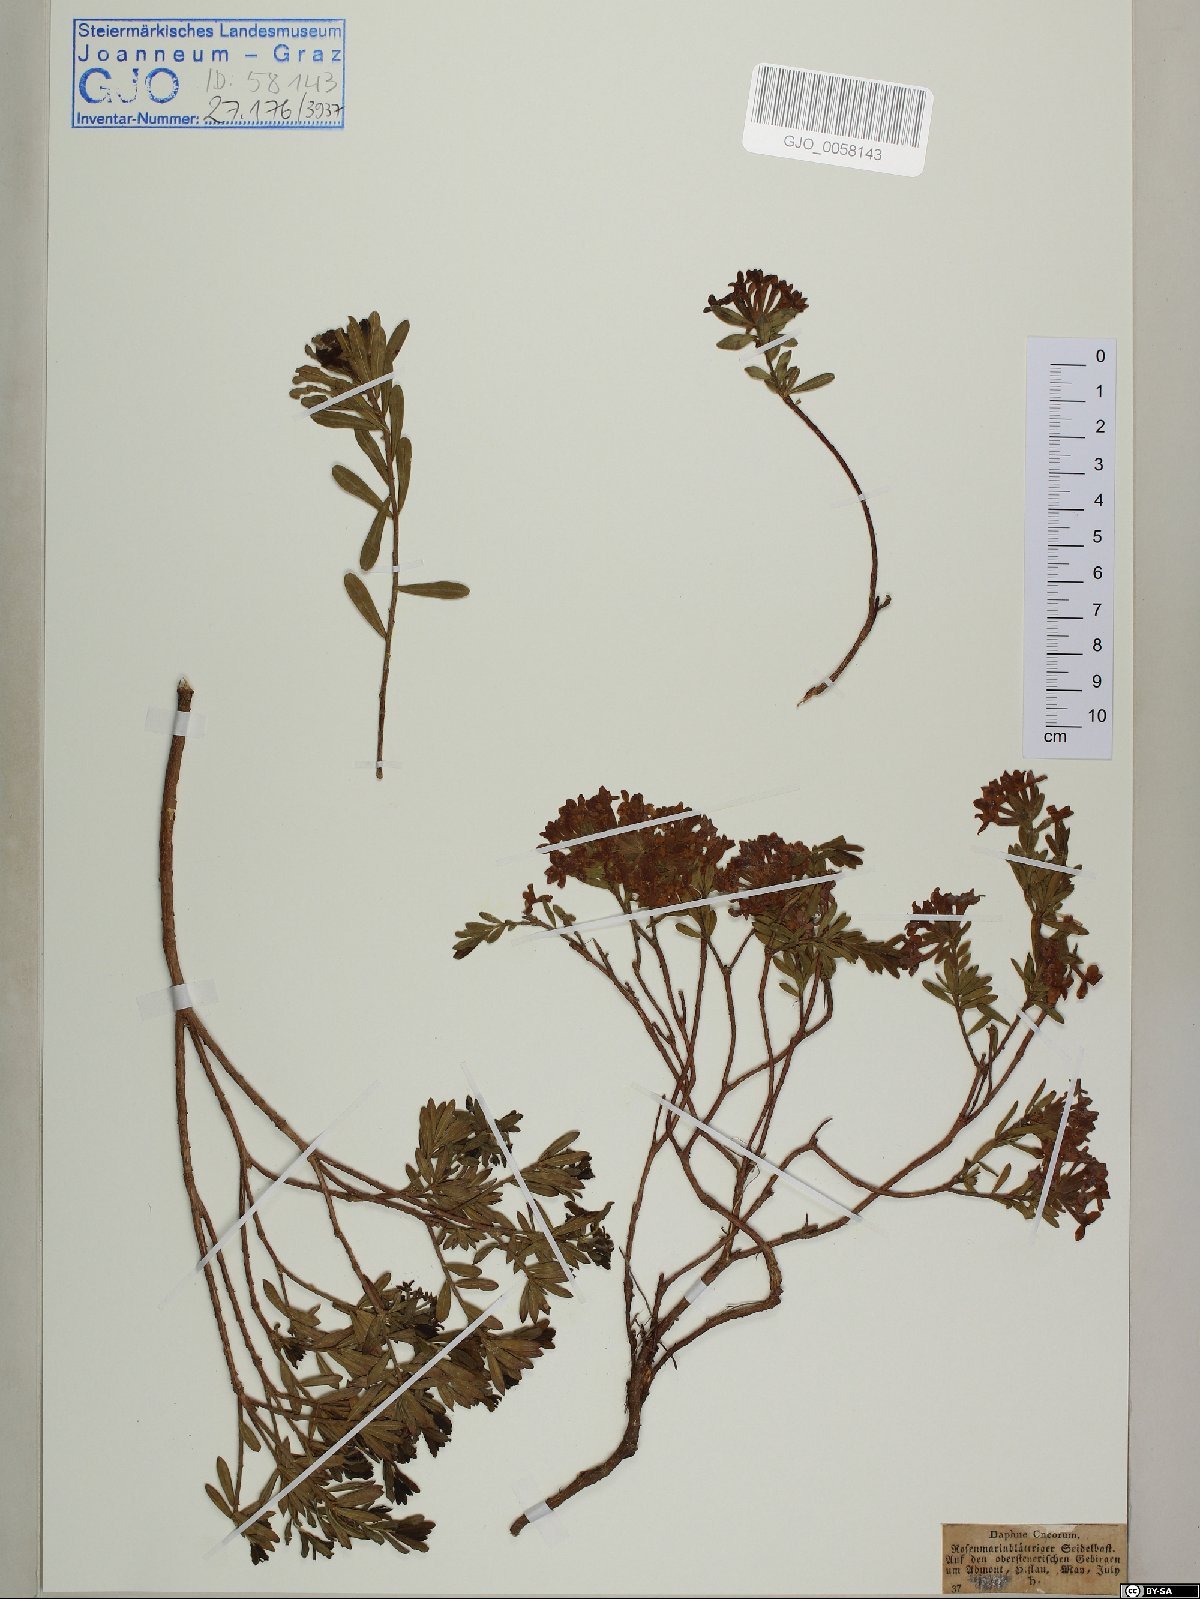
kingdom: Plantae
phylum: Tracheophyta
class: Magnoliopsida
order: Malvales
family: Thymelaeaceae
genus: Daphne
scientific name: Daphne cneorum
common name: Garland-flower
